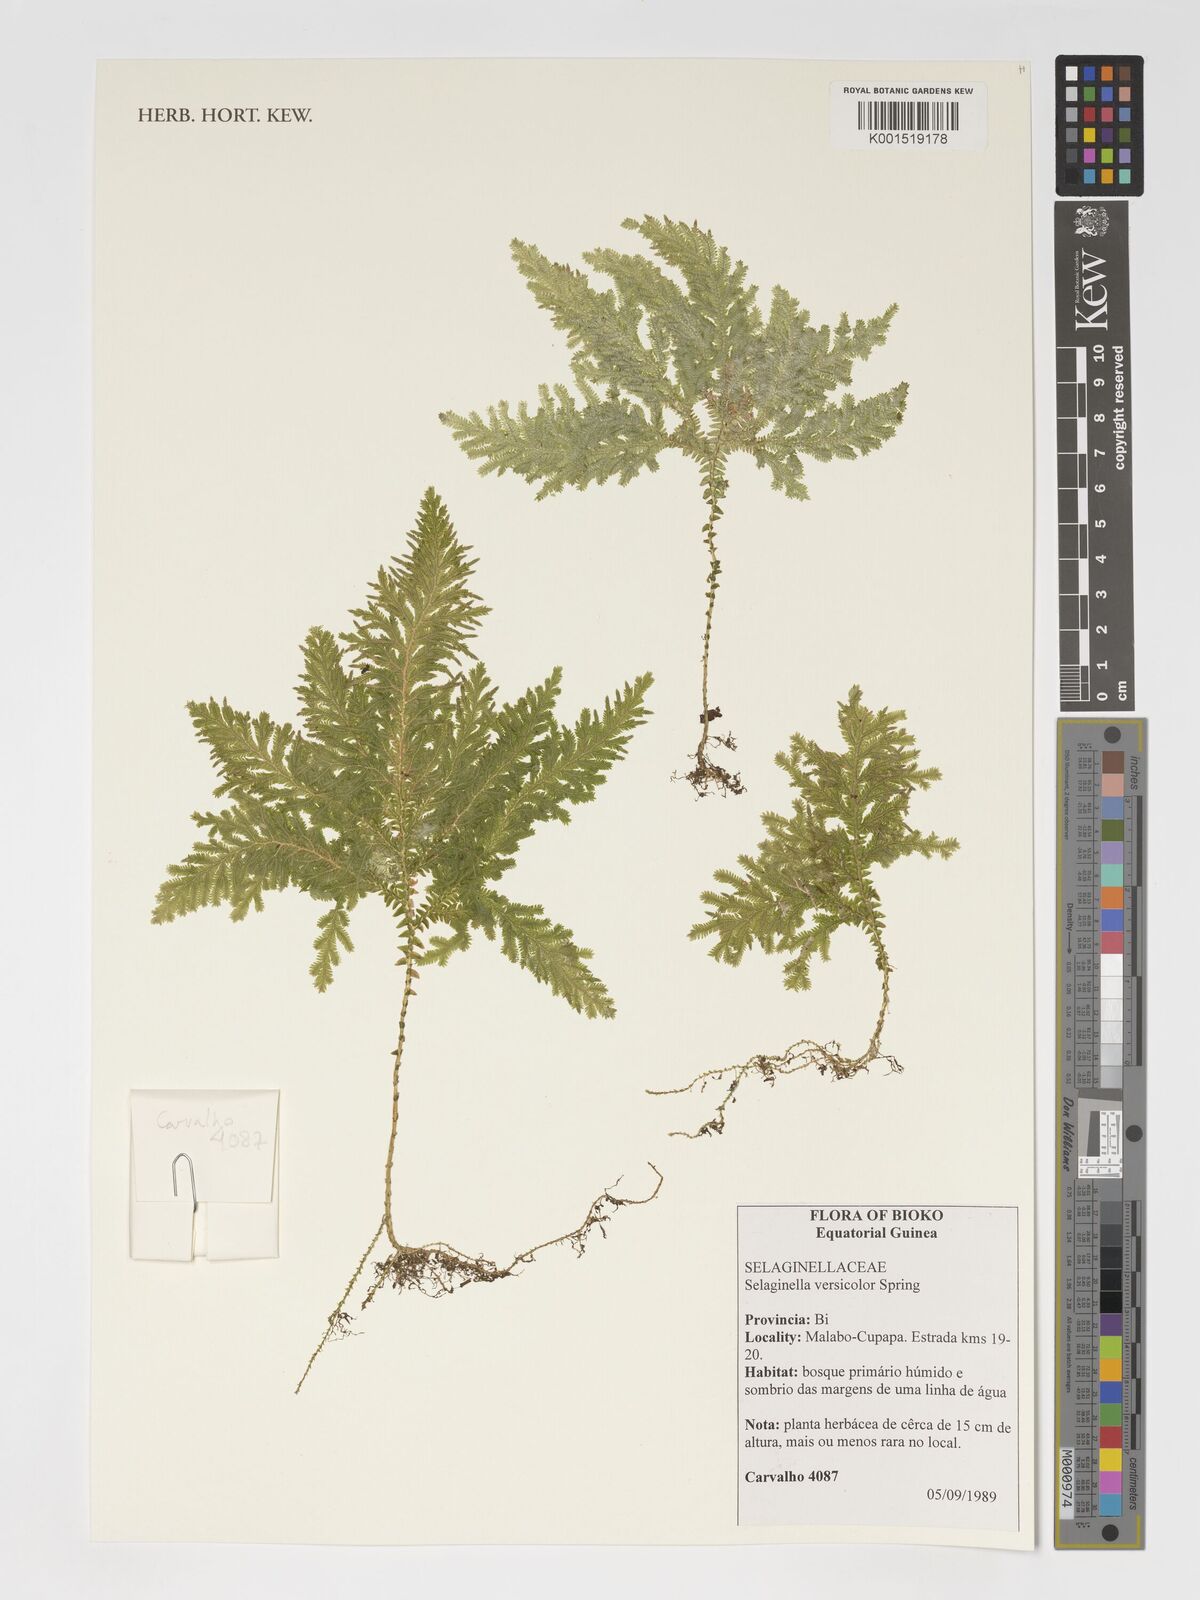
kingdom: Plantae
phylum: Tracheophyta
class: Lycopodiopsida
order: Selaginellales
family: Selaginellaceae
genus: Selaginella
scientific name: Selaginella versicolor
